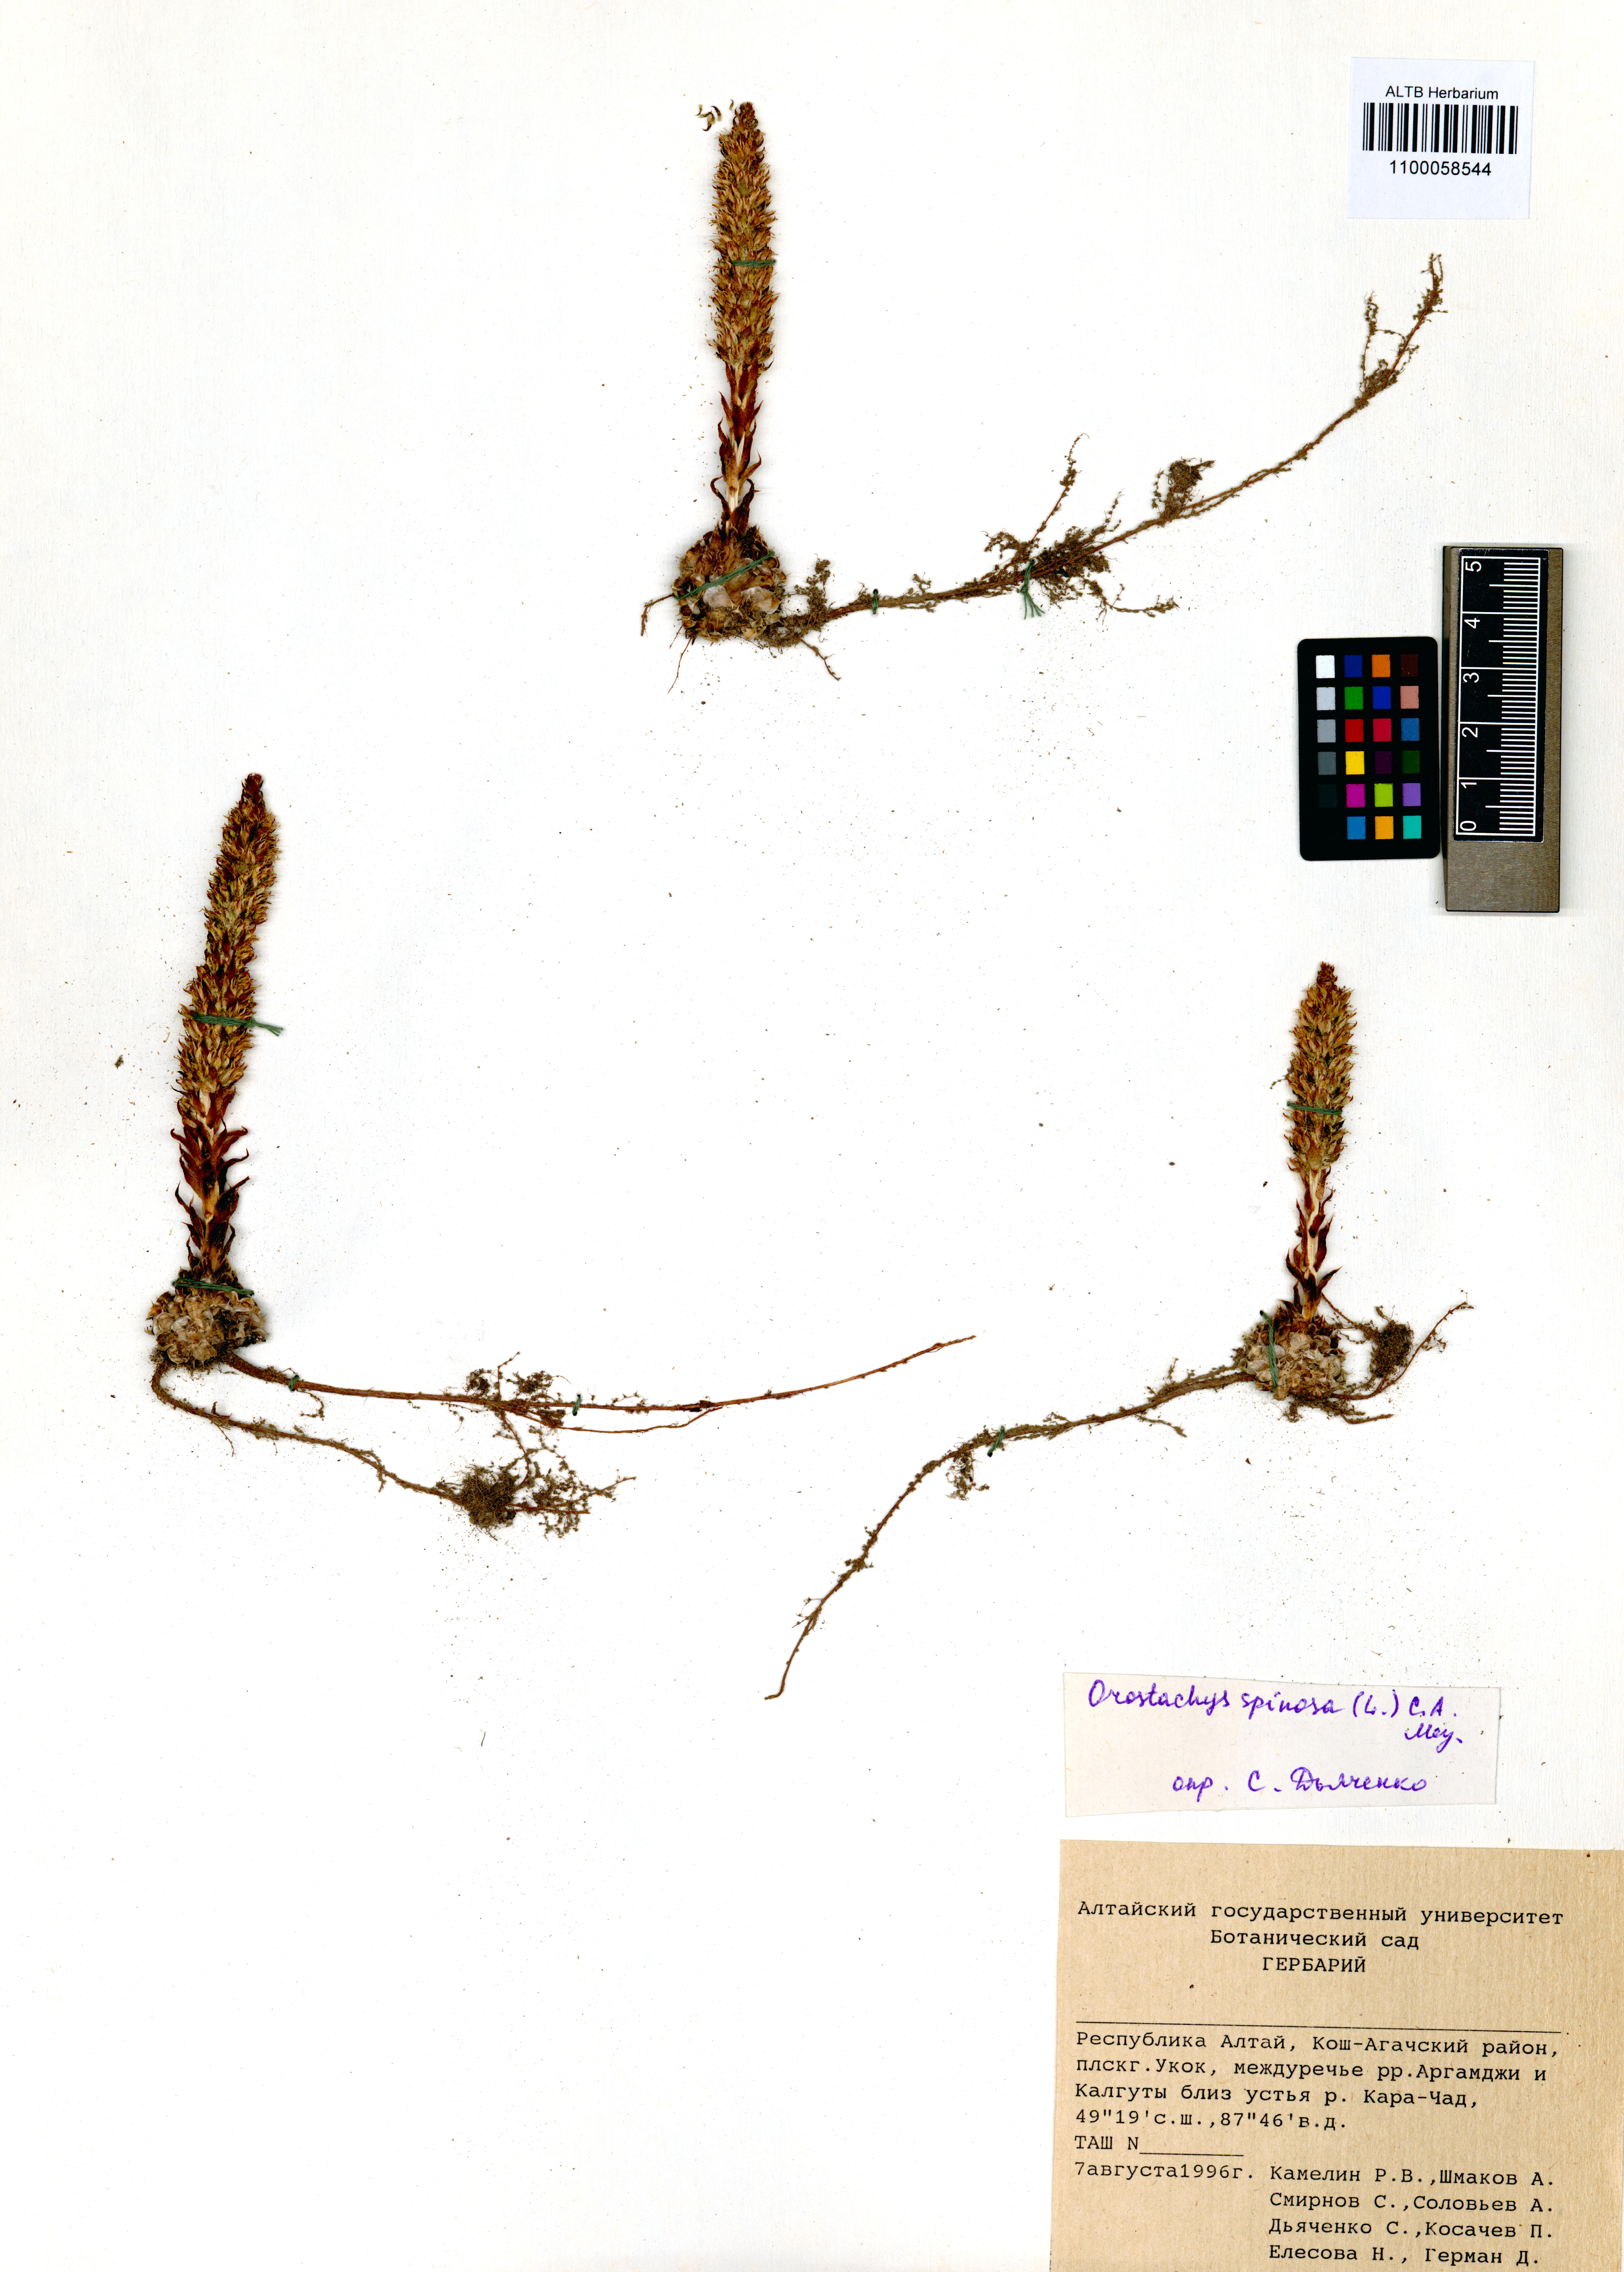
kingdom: Plantae
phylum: Tracheophyta
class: Magnoliopsida
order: Saxifragales
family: Crassulaceae
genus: Orostachys
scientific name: Orostachys spinosa
